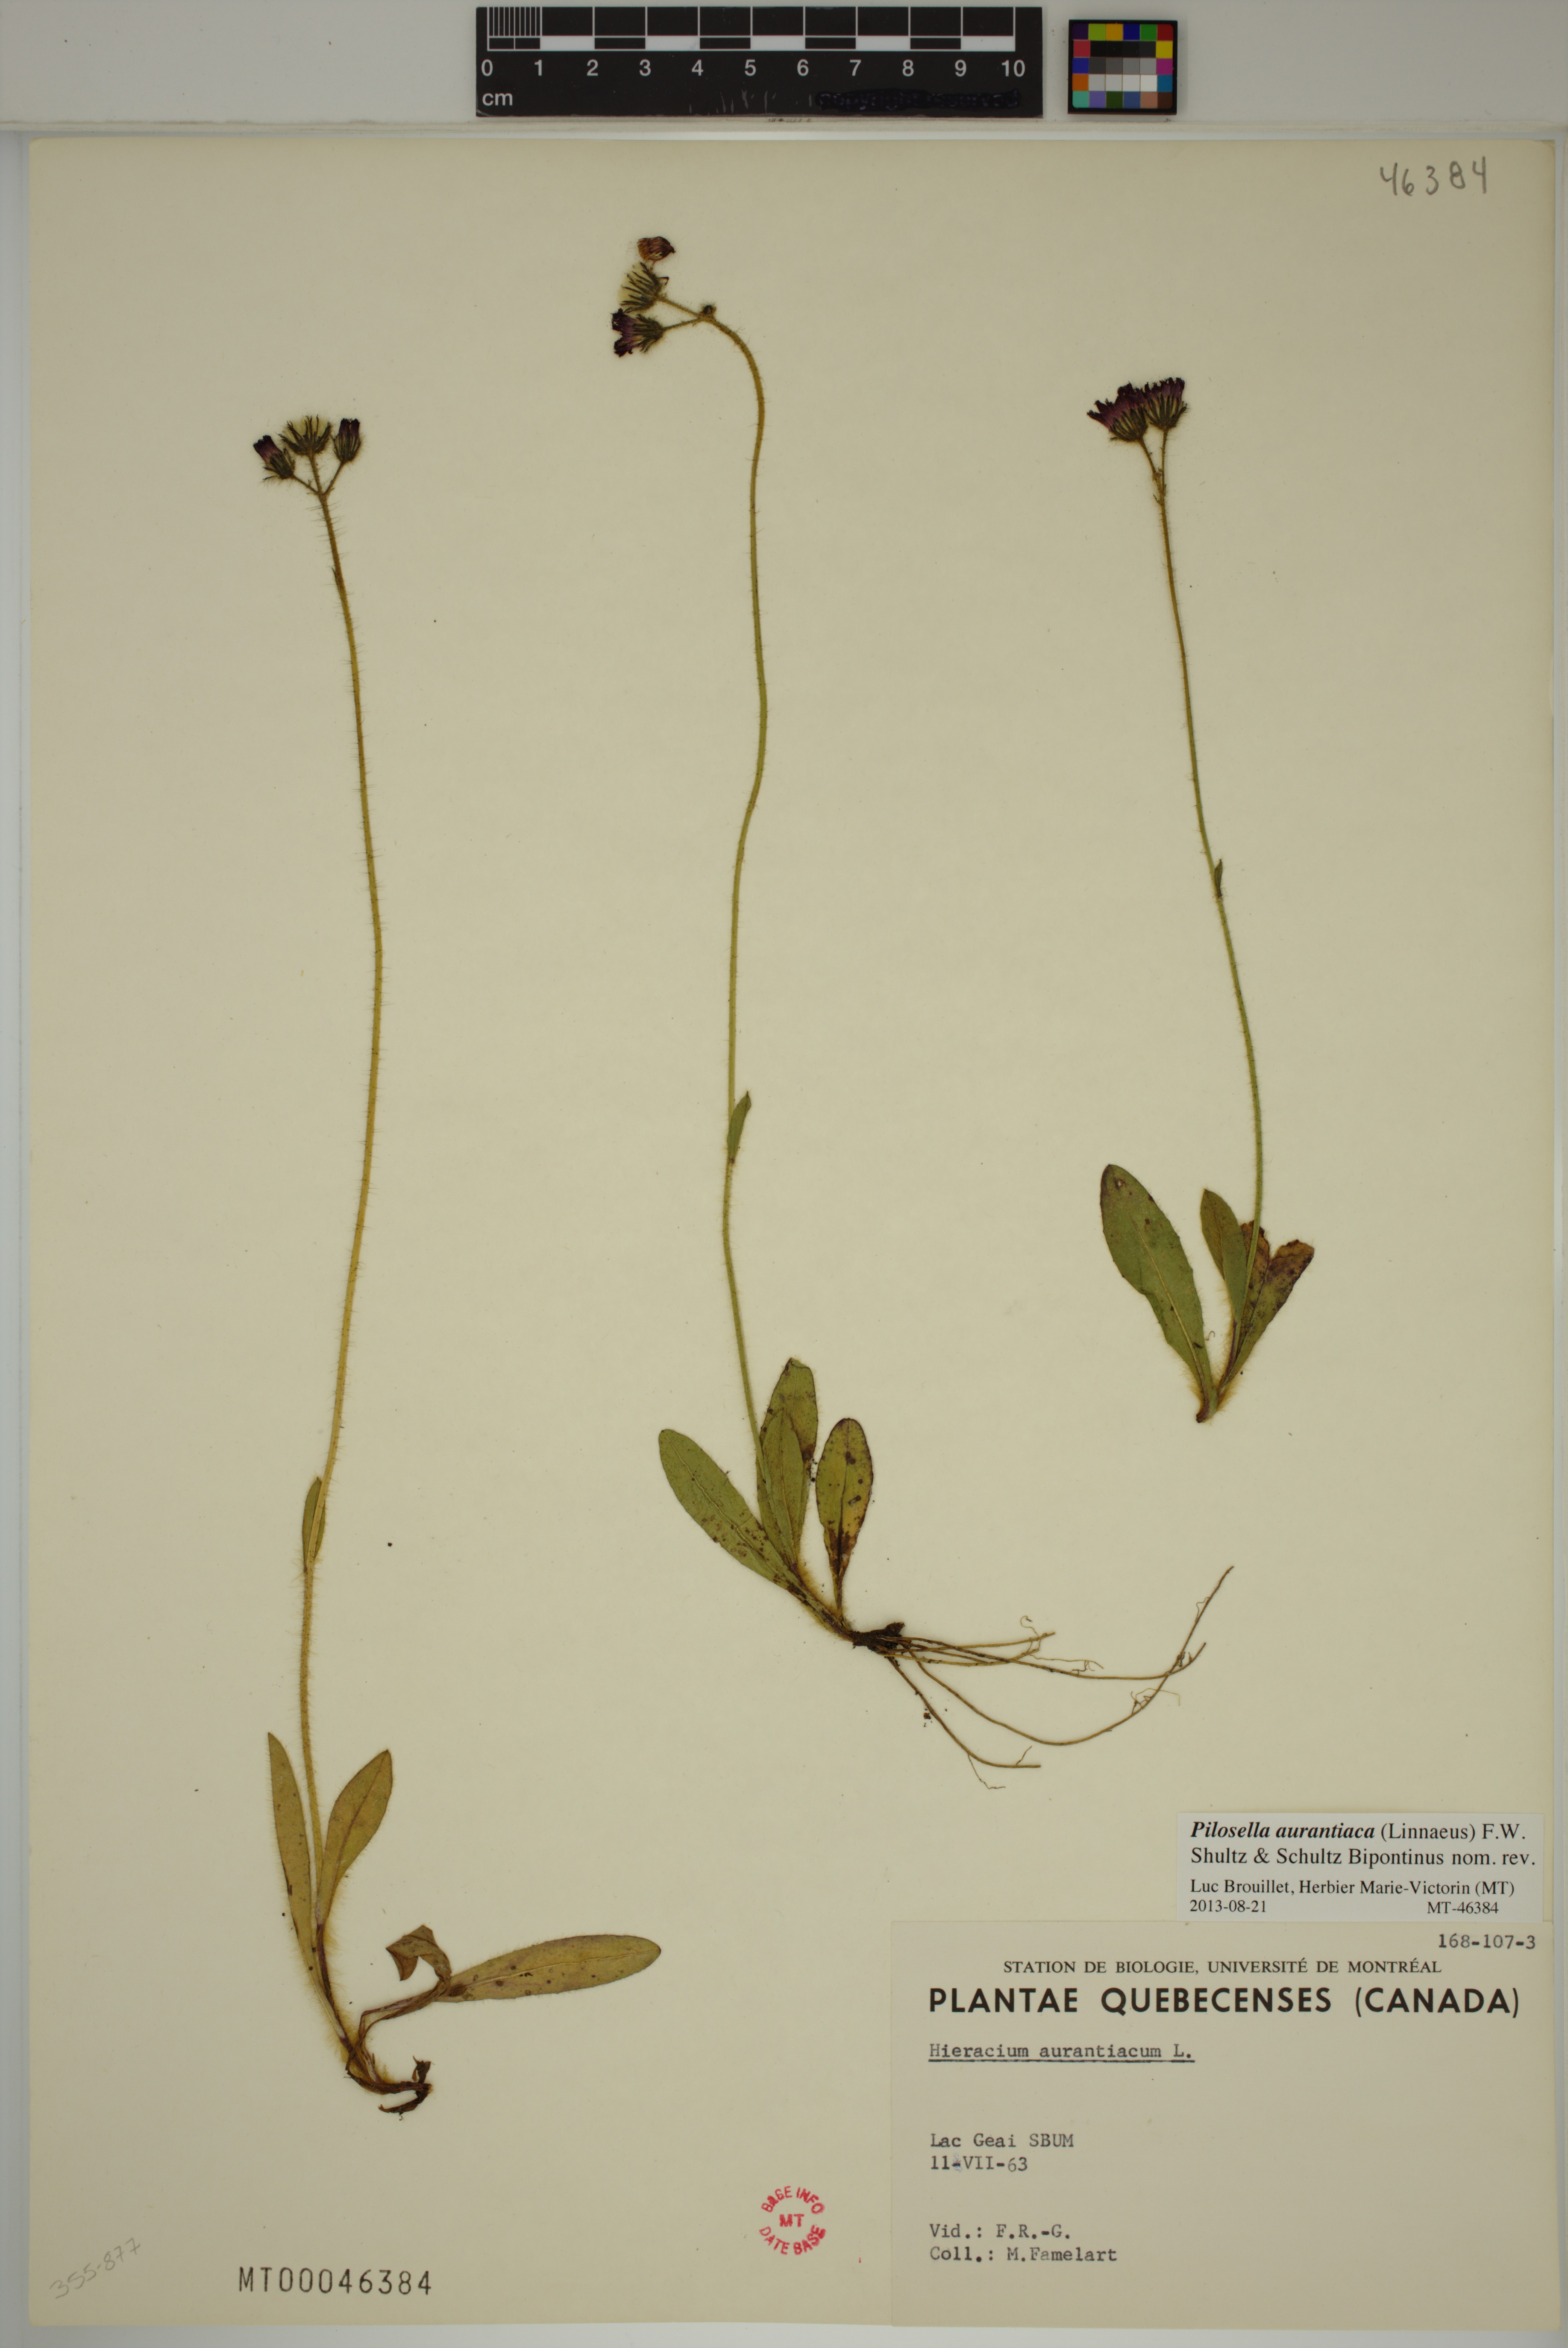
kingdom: Plantae
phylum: Tracheophyta
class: Magnoliopsida
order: Asterales
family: Asteraceae
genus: Pilosella
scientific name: Pilosella aurantiaca
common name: Fox-and-cubs
